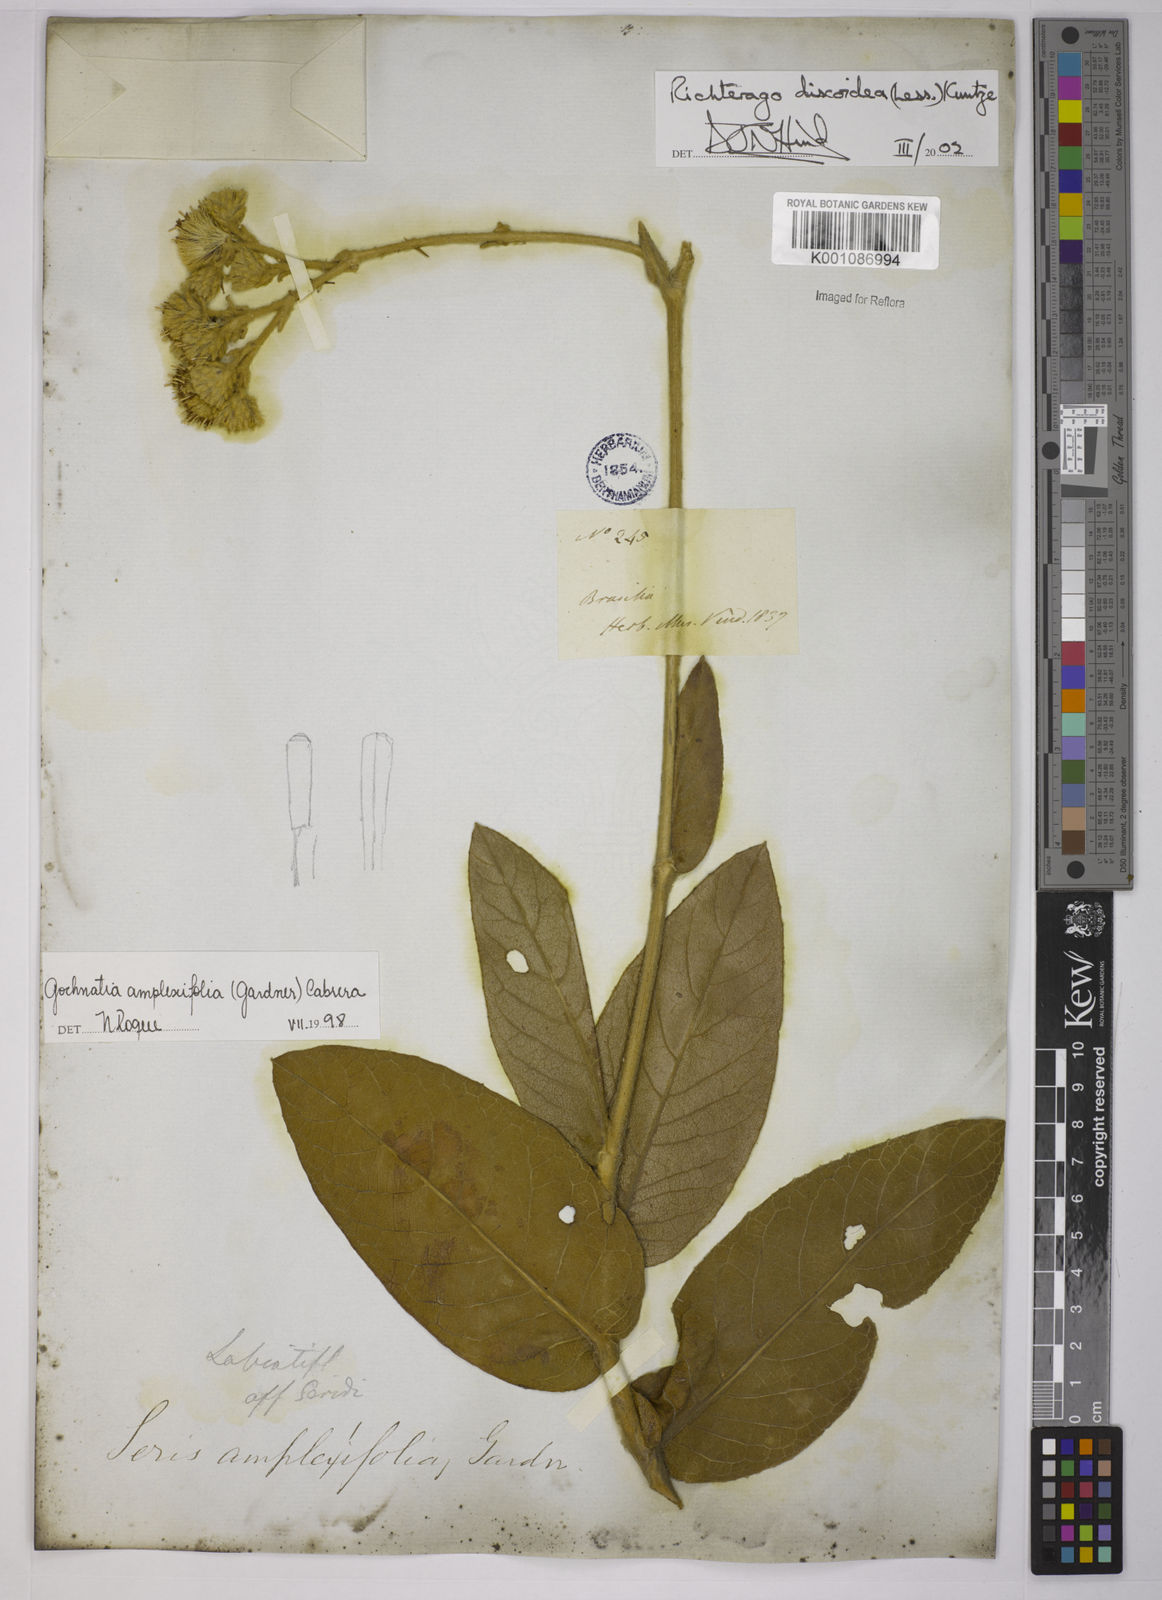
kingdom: Plantae
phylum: Tracheophyta
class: Magnoliopsida
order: Asterales
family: Asteraceae
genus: Richterago
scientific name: Richterago amplexifolia
